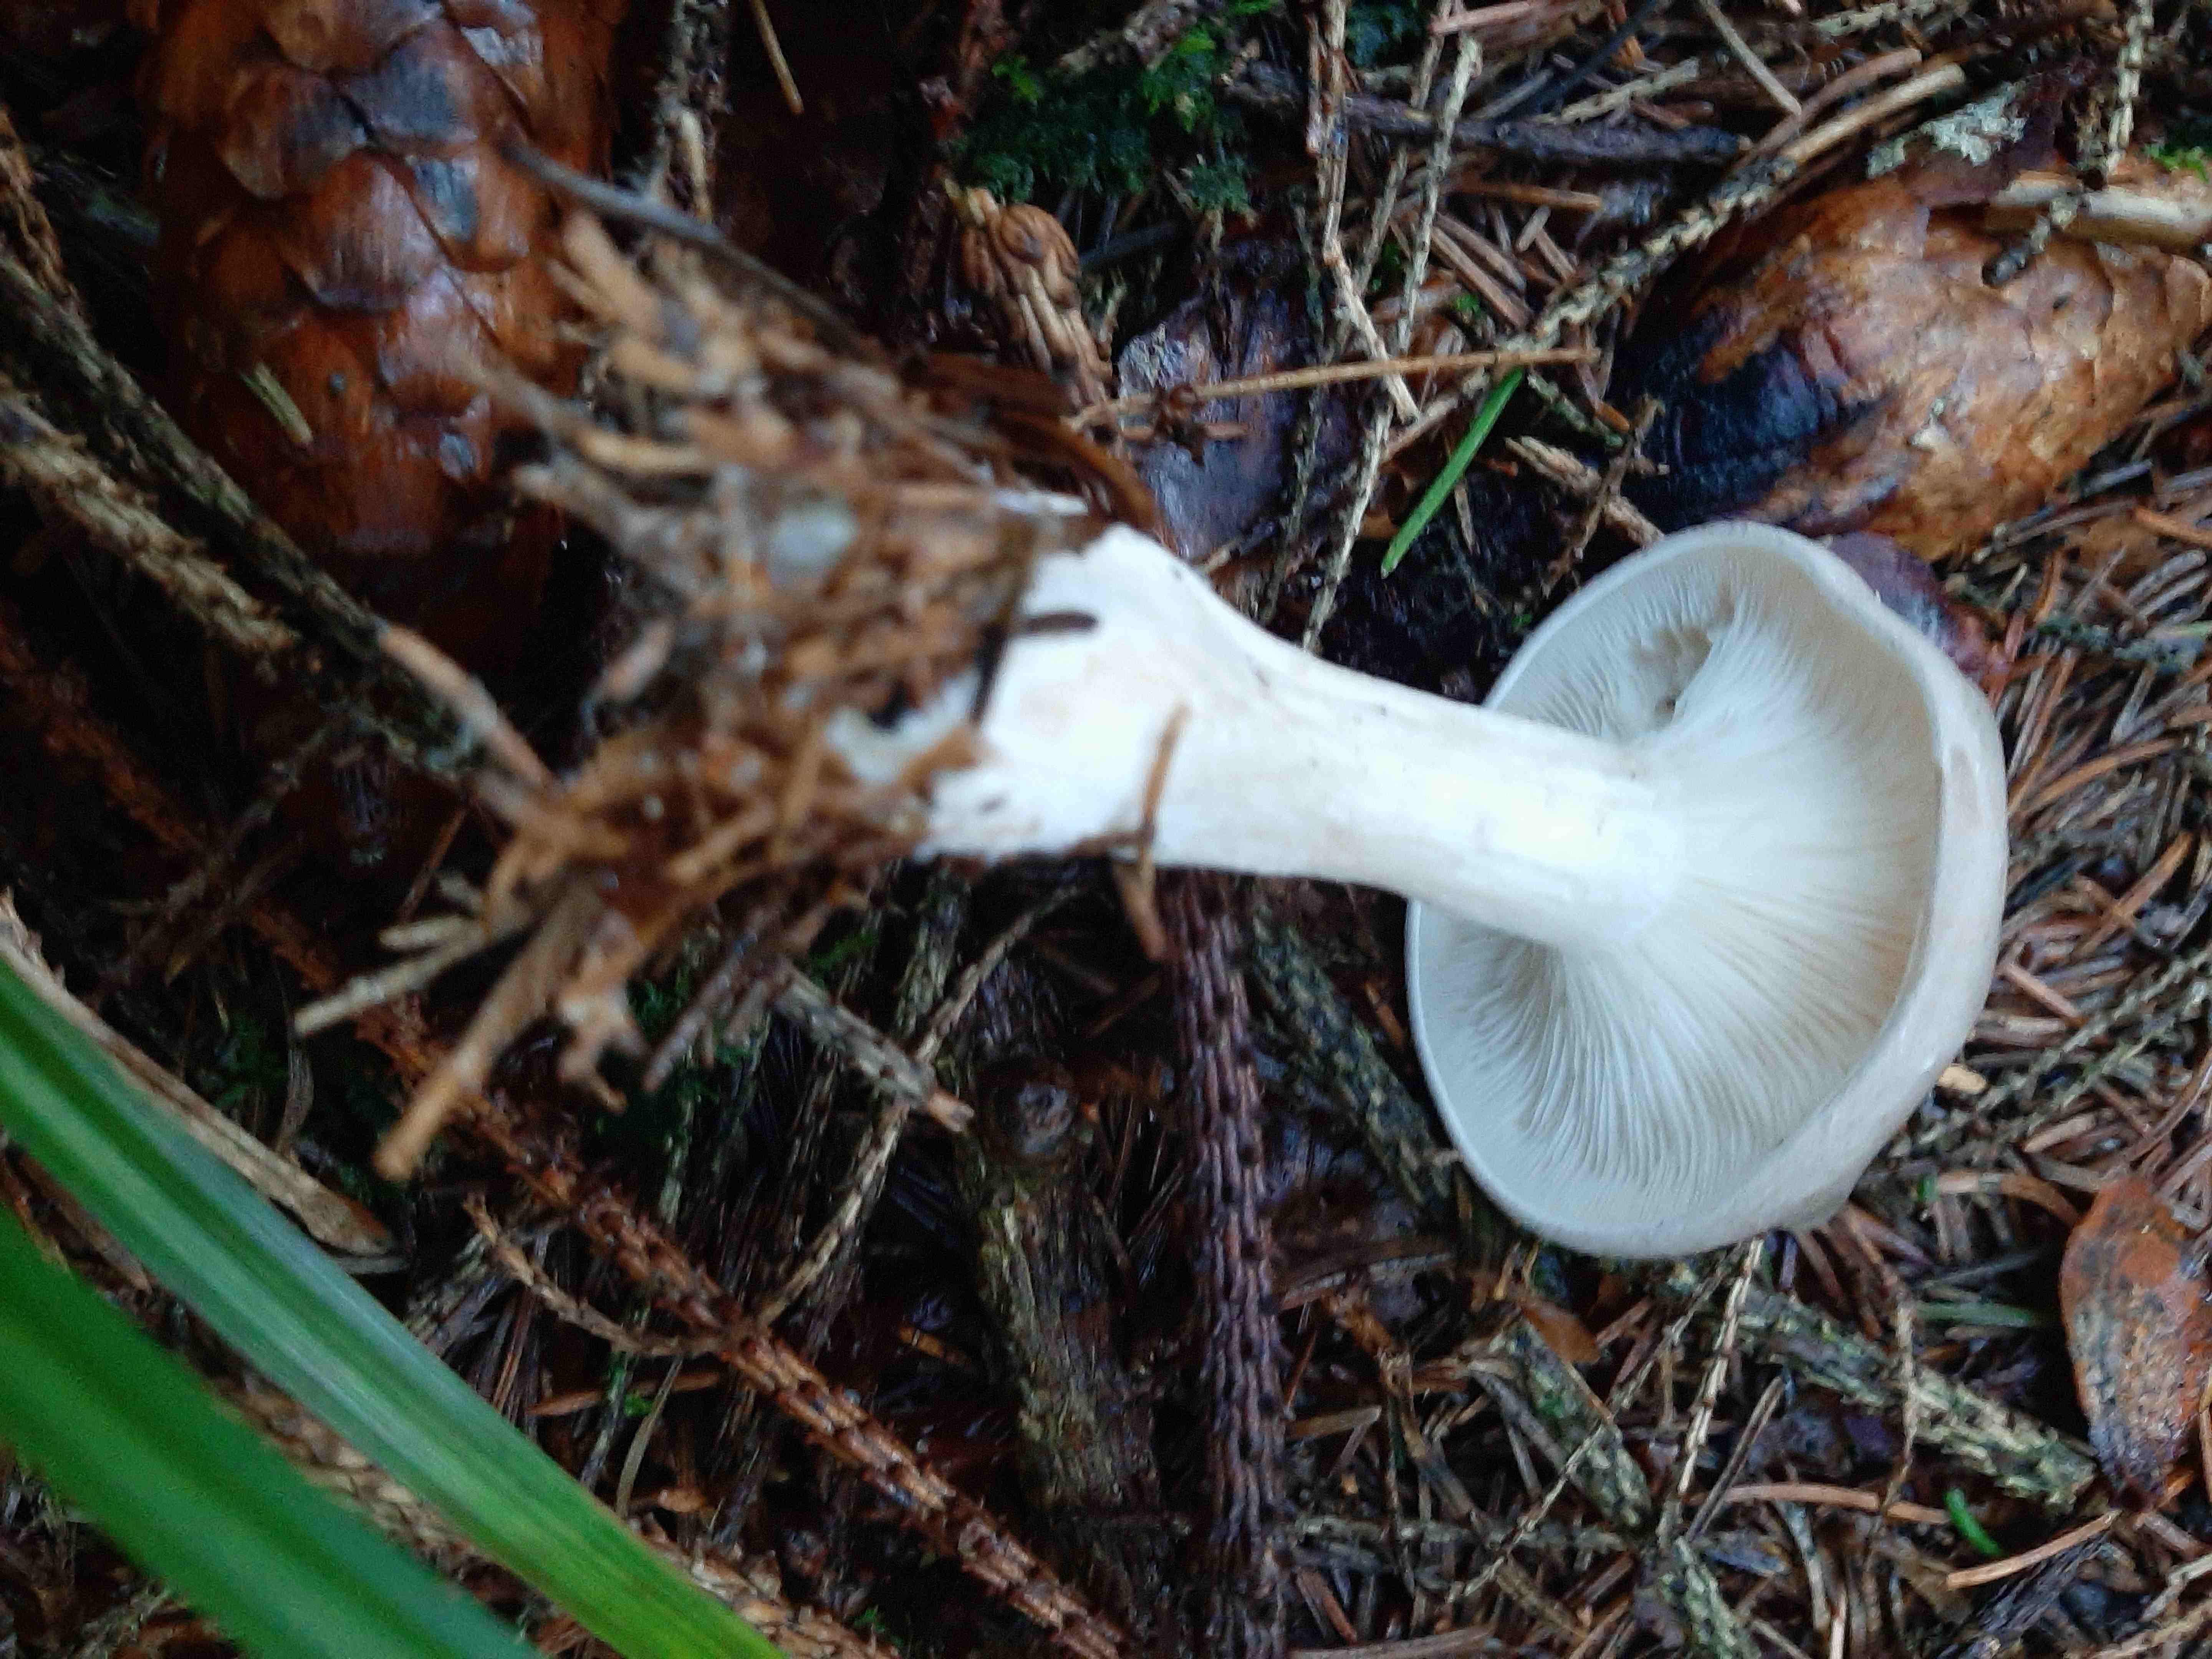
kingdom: Fungi
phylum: Basidiomycota
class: Agaricomycetes
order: Agaricales
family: Tricholomataceae
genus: Clitocybe
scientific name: Clitocybe nebularis
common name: tåge-tragthat
